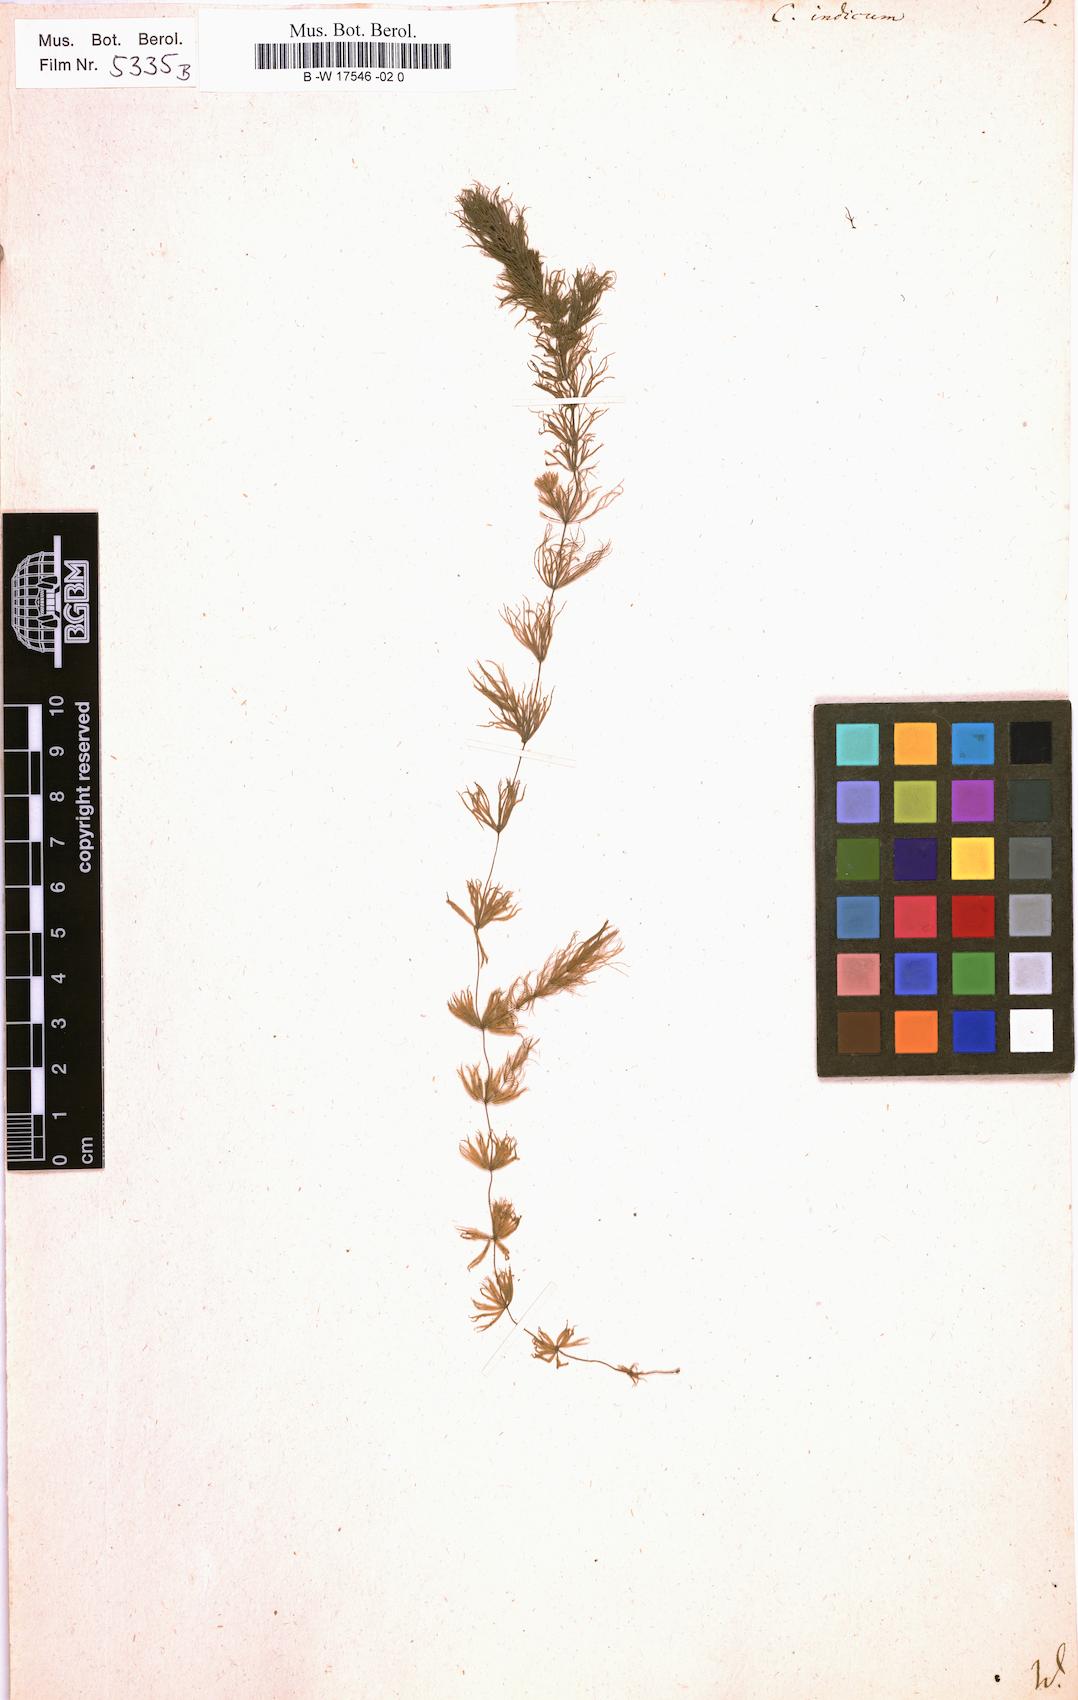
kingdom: Plantae
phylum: Tracheophyta
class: Magnoliopsida
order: Ceratophyllales
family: Ceratophyllaceae
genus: Ceratophyllum
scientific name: Ceratophyllum demersum
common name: Rigid hornwort
